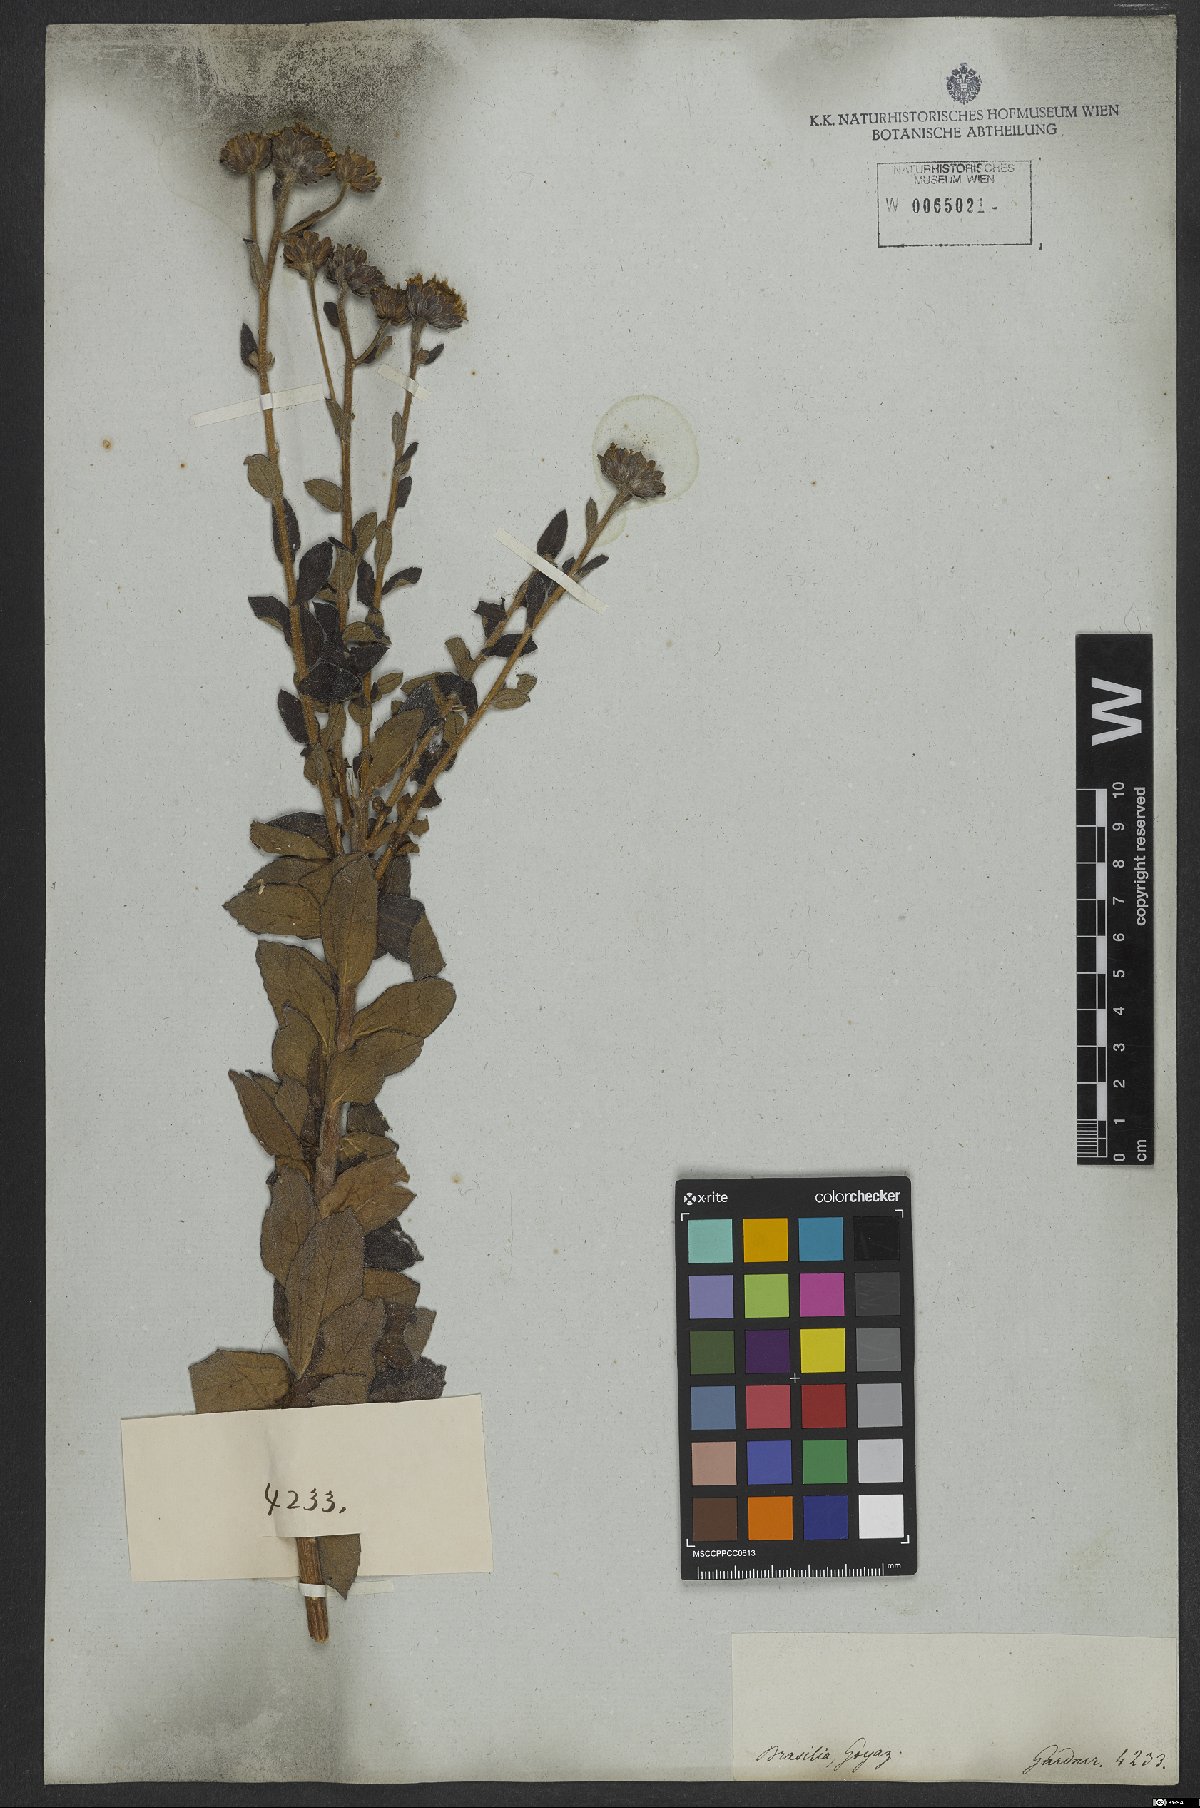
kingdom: Plantae
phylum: Tracheophyta
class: Magnoliopsida
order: Asterales
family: Asteraceae
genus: Aldama
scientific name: Aldama robusta
